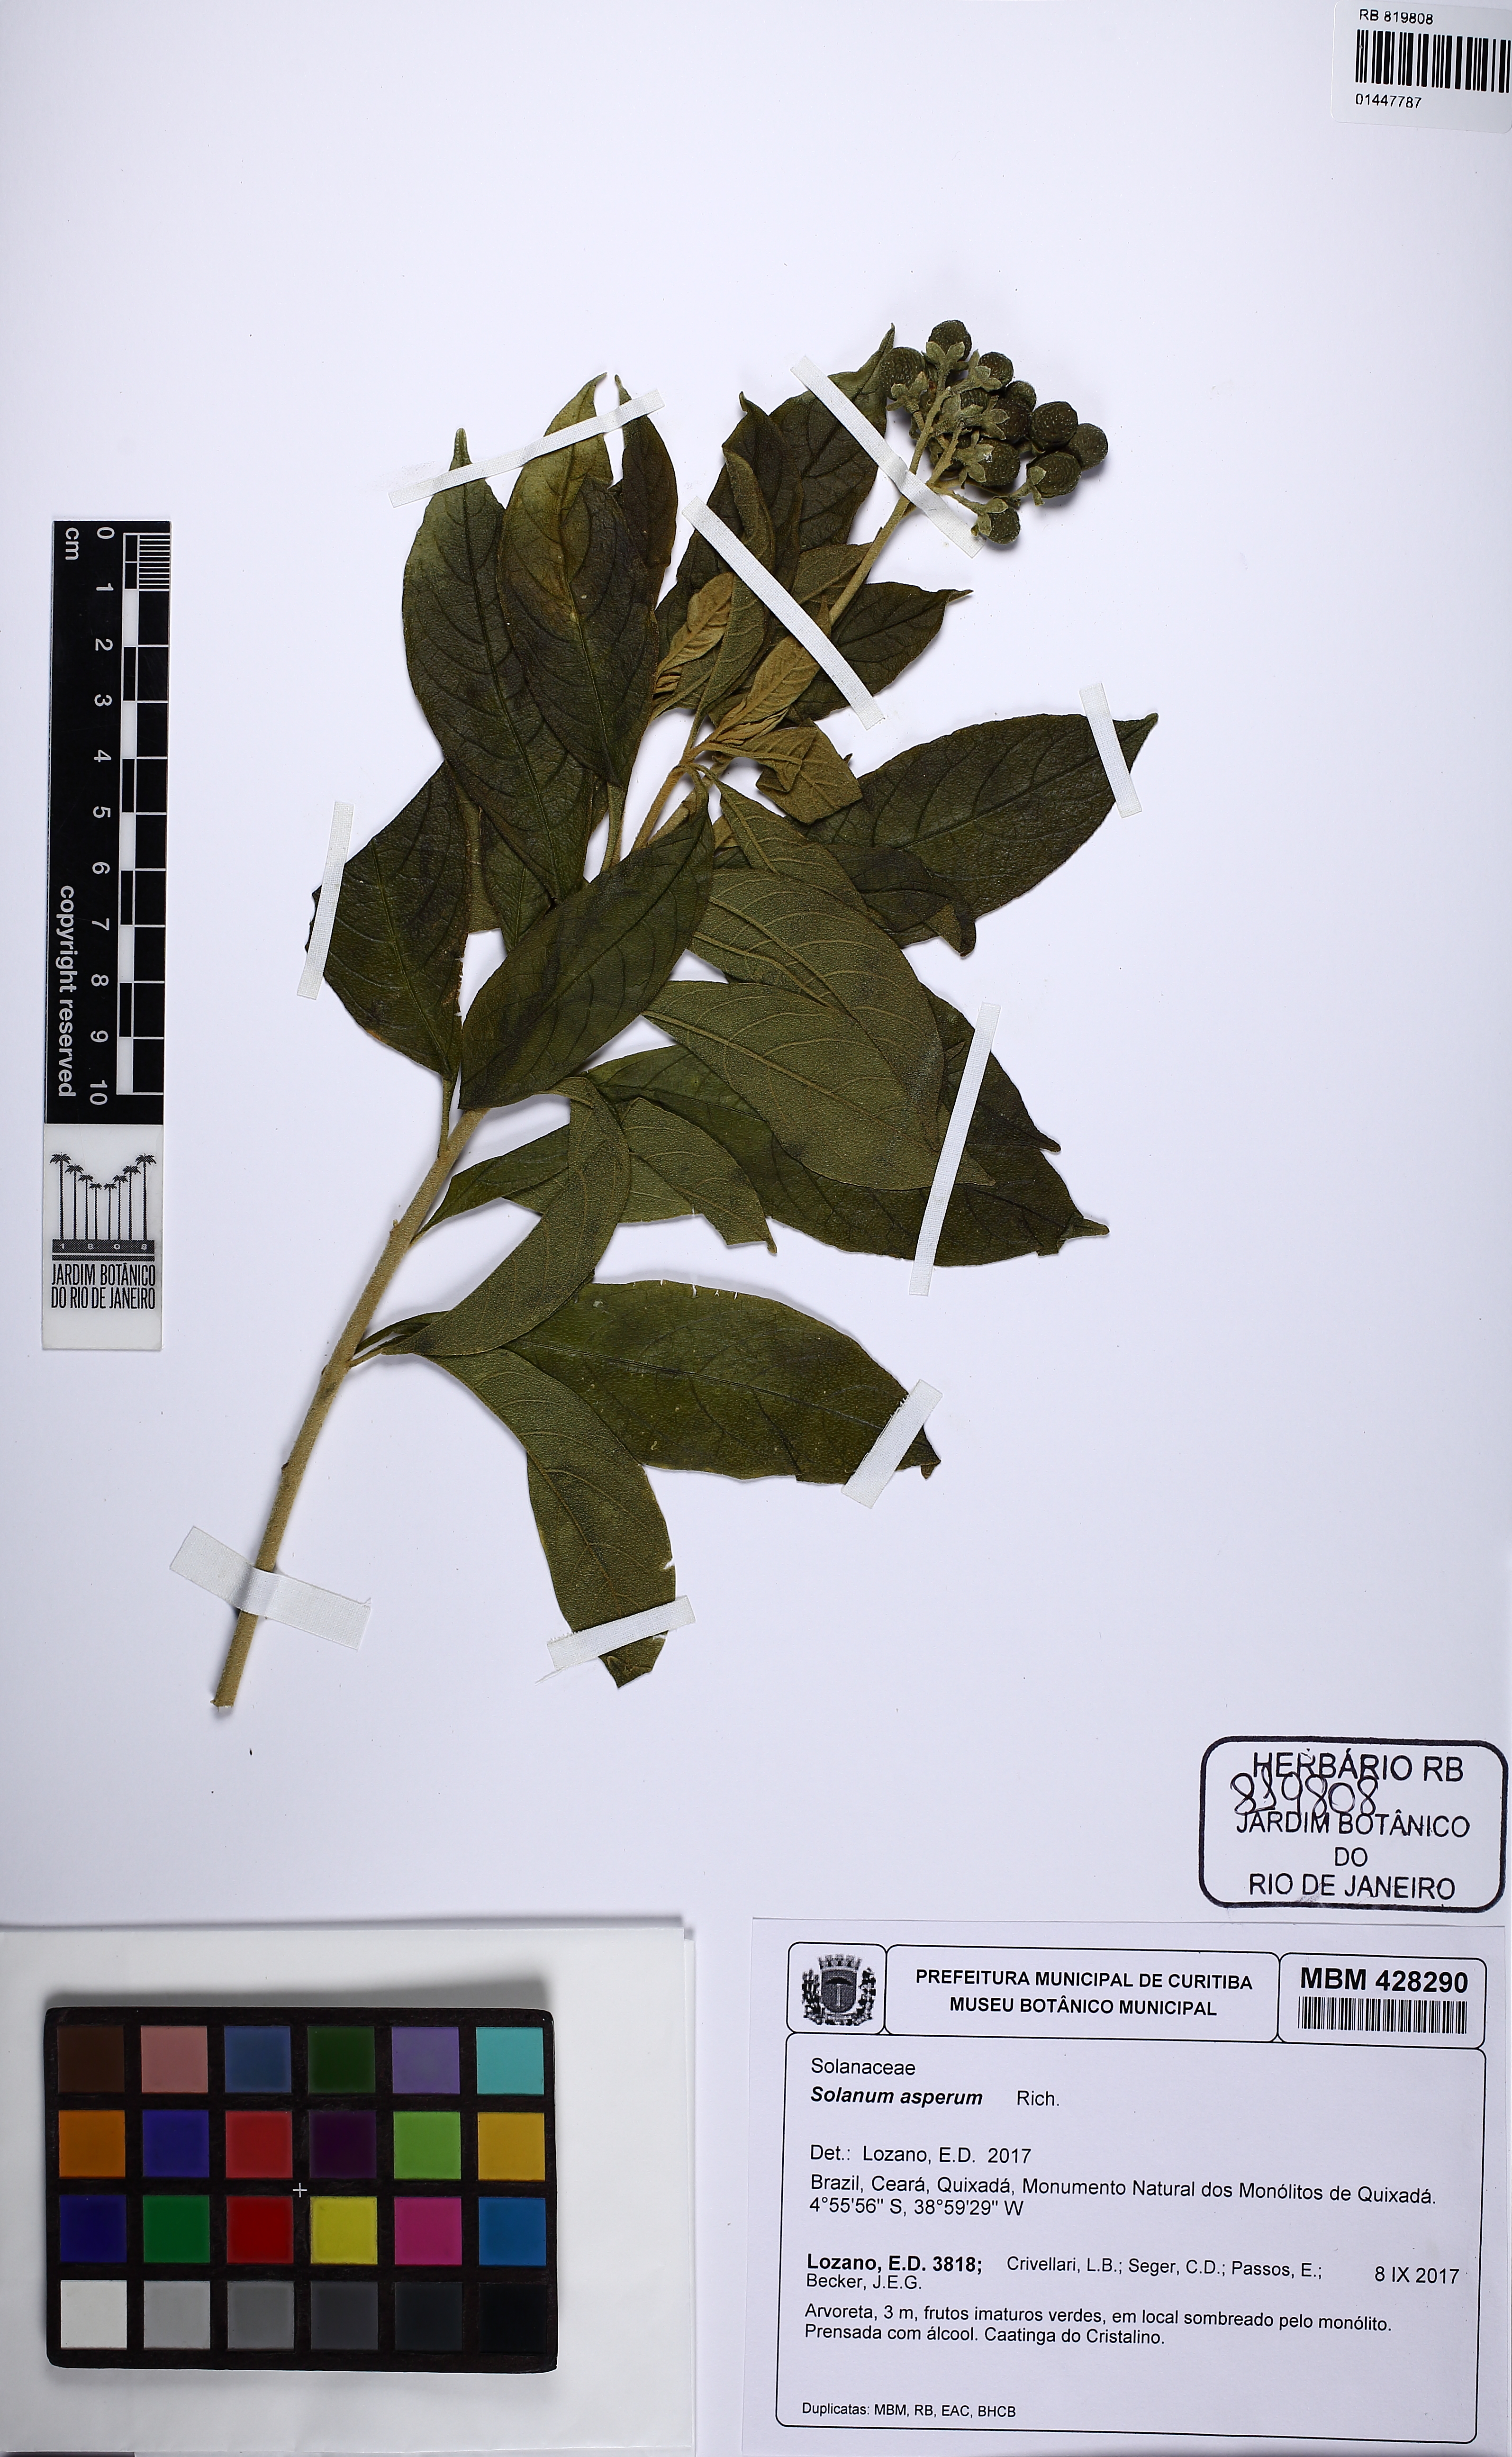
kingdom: Plantae
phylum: Tracheophyta
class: Magnoliopsida
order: Solanales
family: Solanaceae
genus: Solanum
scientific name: Solanum asperum
